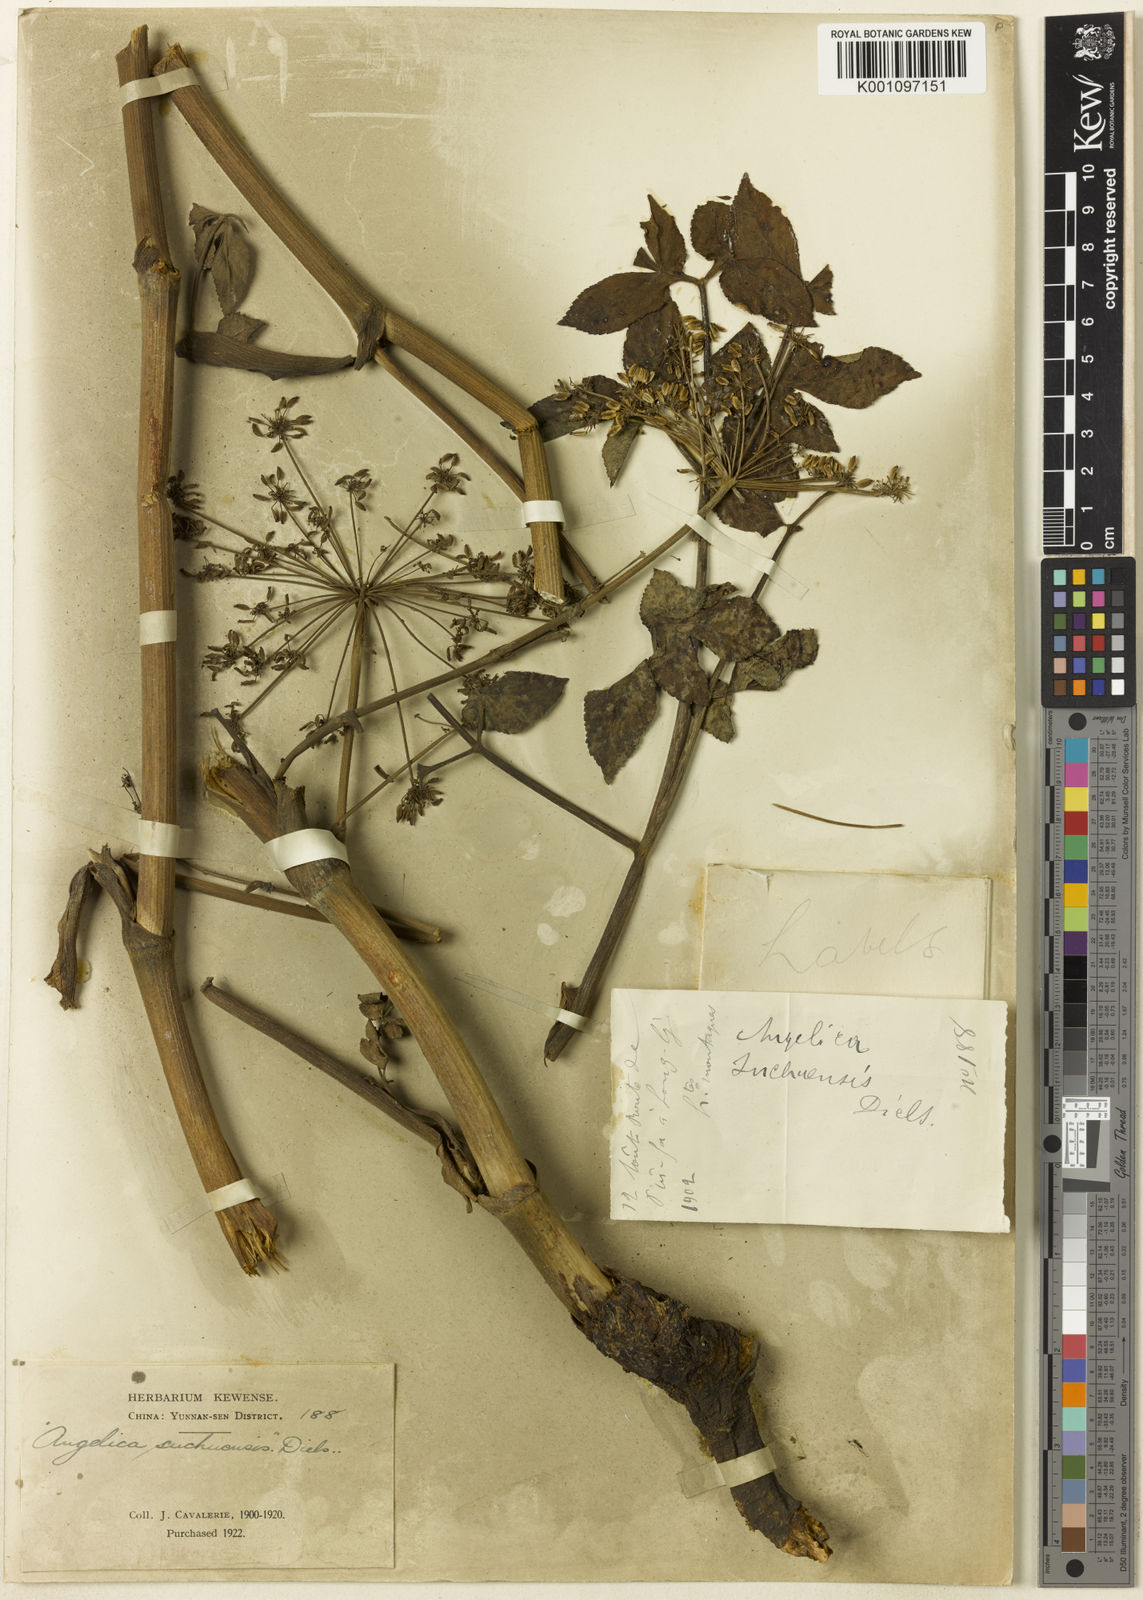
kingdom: Plantae
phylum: Tracheophyta
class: Magnoliopsida
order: Apiales
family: Apiaceae
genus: Angelica
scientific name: Angelica setchuenensis
